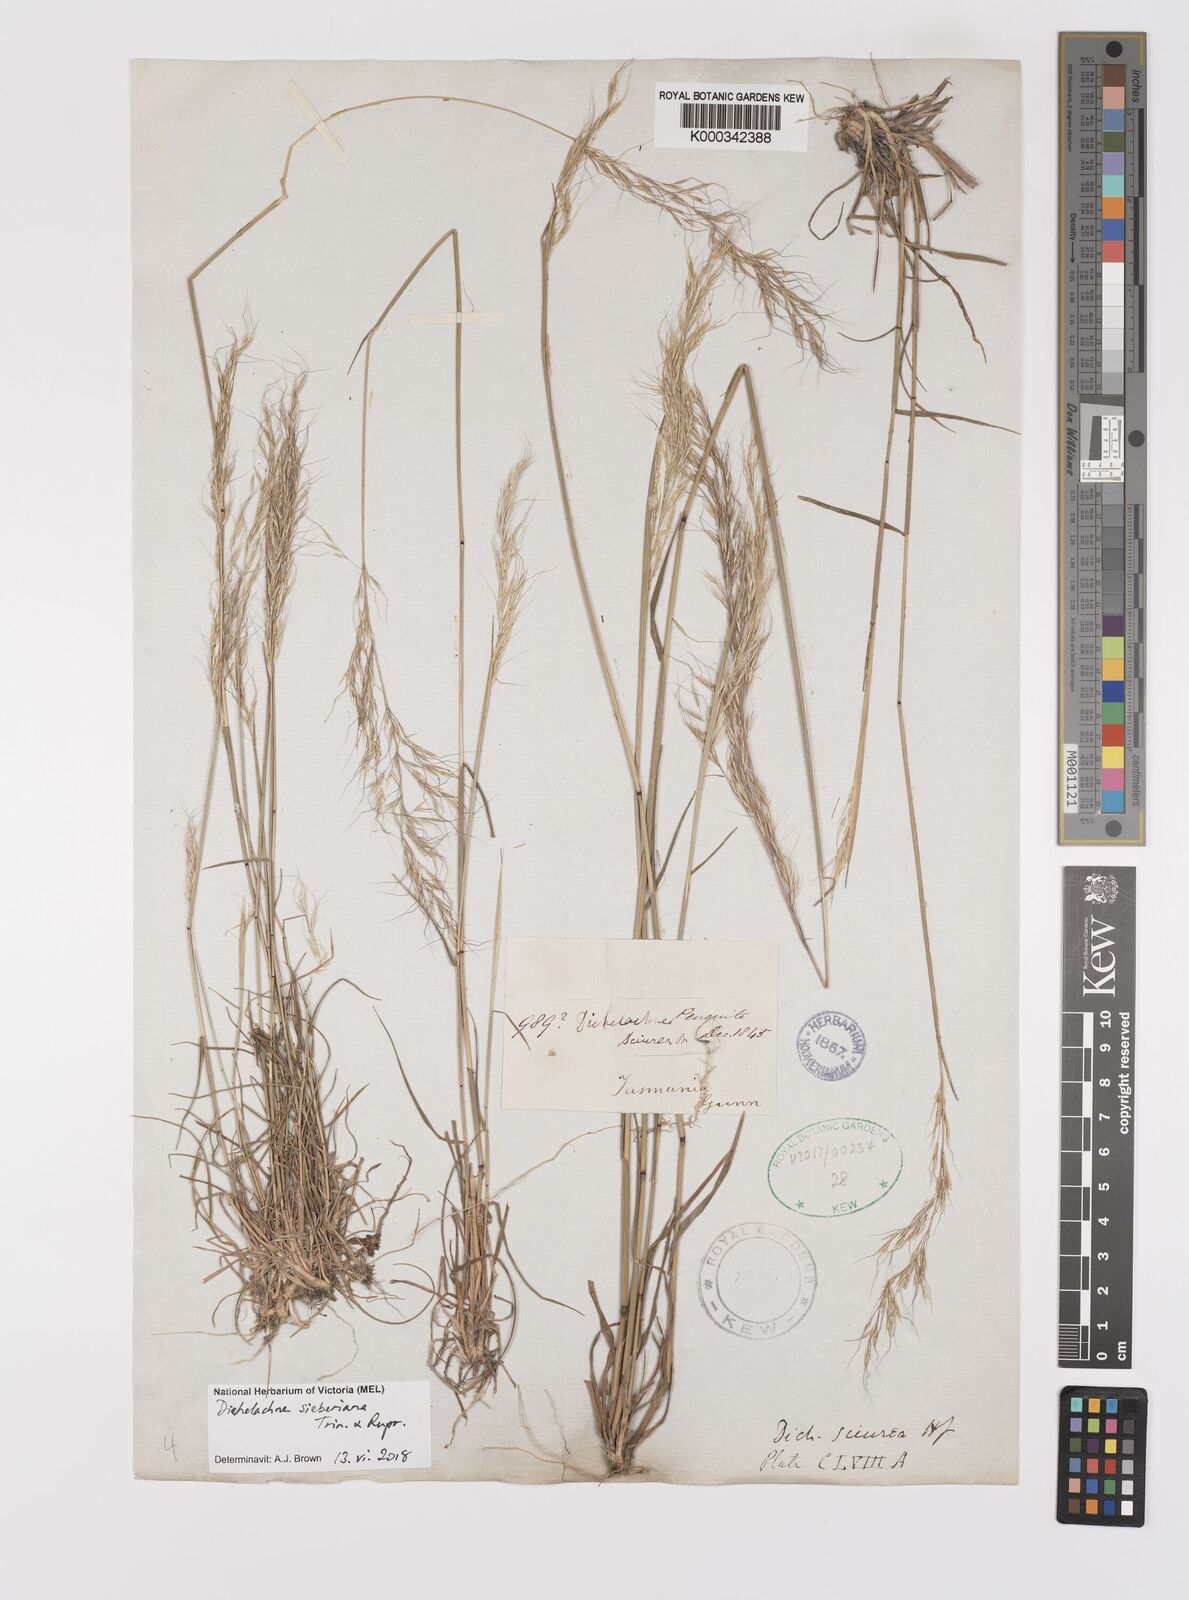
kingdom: Plantae
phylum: Tracheophyta
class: Liliopsida
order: Poales
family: Poaceae
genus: Dichelachne
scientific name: Dichelachne sieberiana
